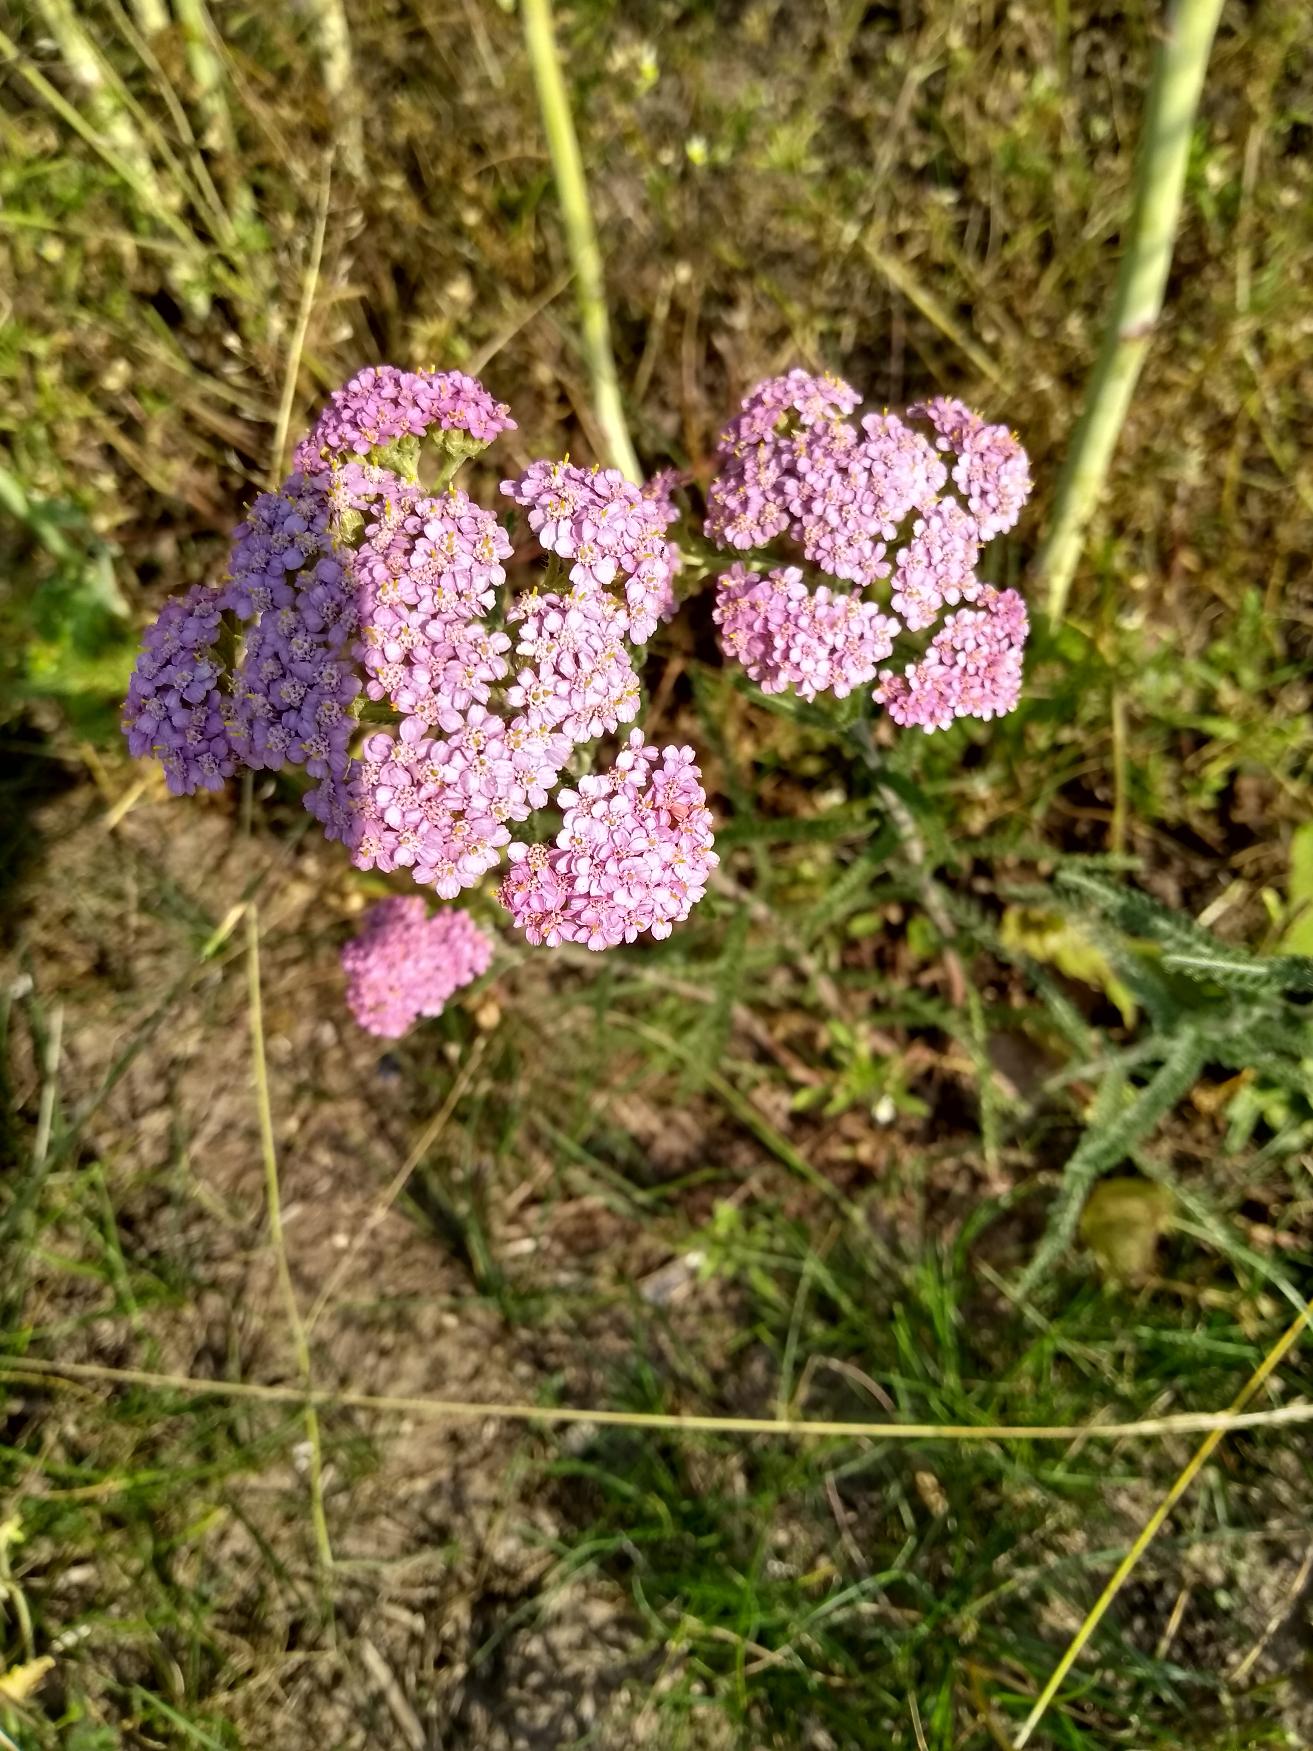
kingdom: Plantae
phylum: Tracheophyta
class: Magnoliopsida
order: Asterales
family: Asteraceae
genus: Achillea
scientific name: Achillea millefolium
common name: Almindelig røllike
